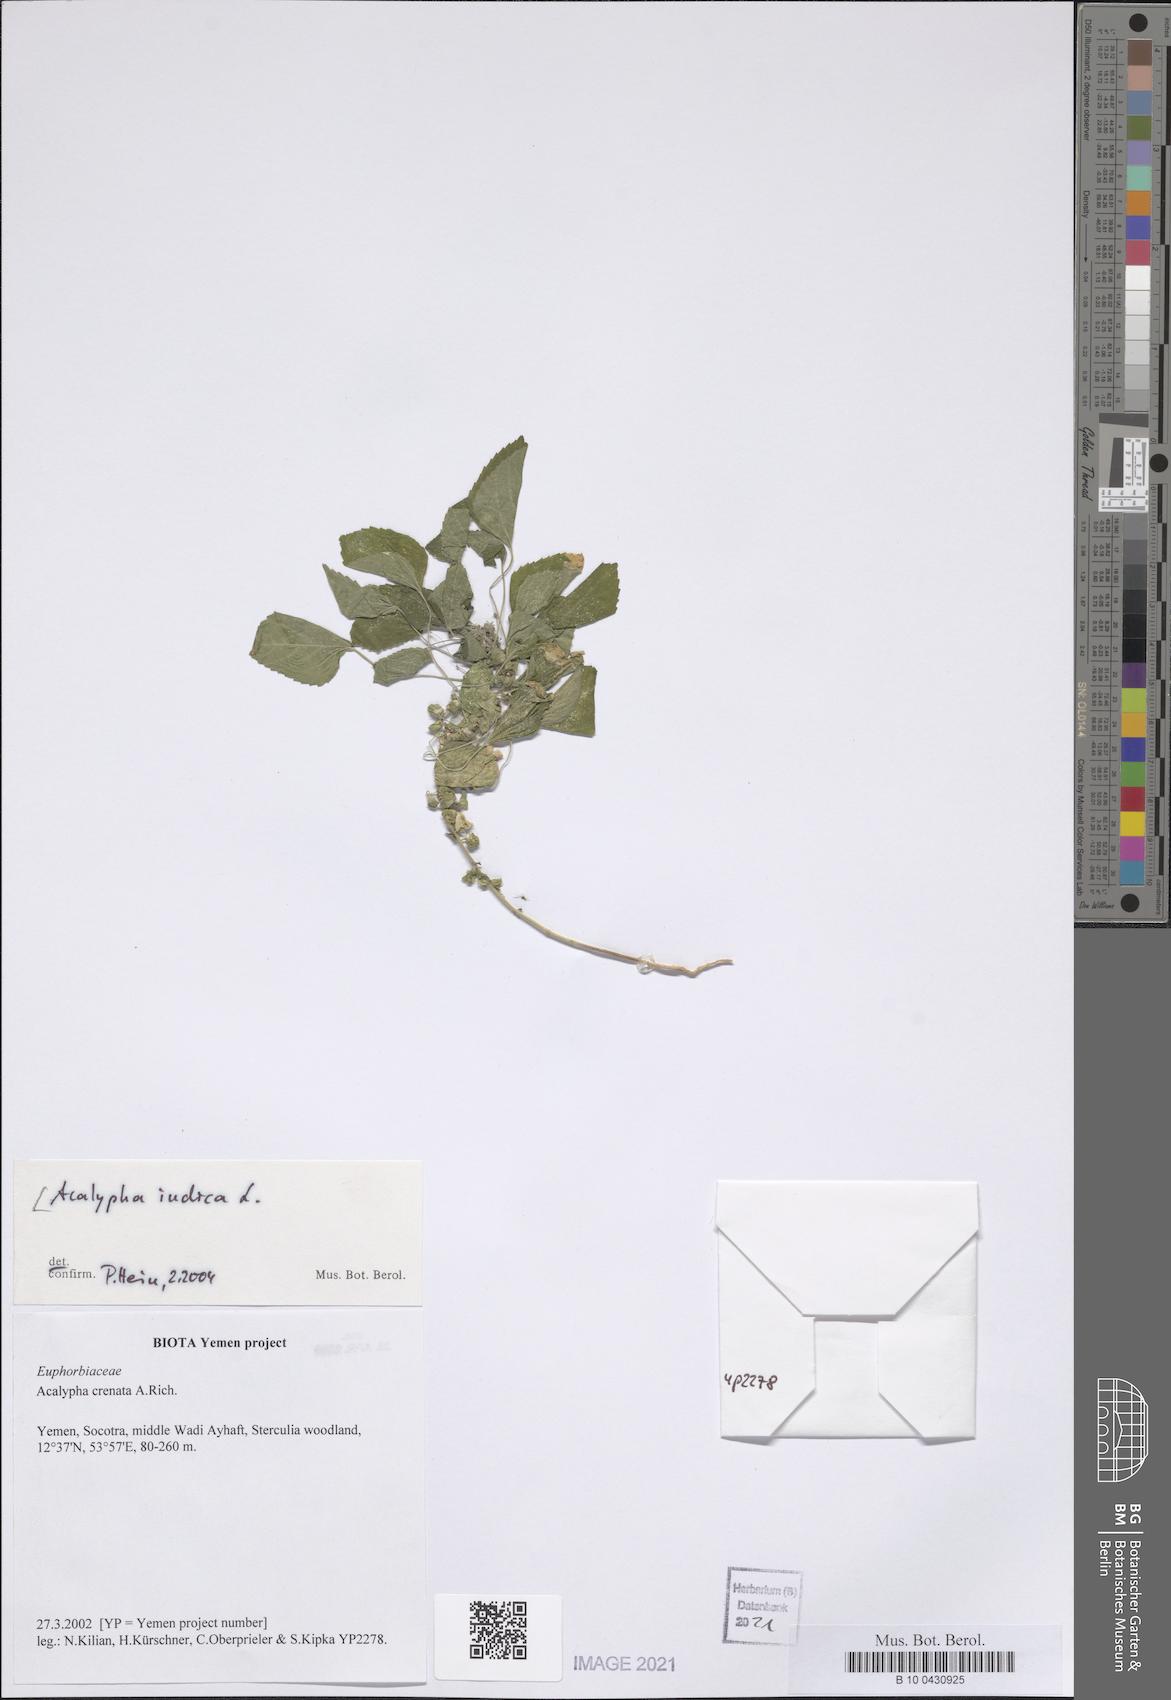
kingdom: Plantae
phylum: Tracheophyta
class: Magnoliopsida
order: Malpighiales
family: Euphorbiaceae
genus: Acalypha
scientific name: Acalypha indica
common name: Indian acalypha
